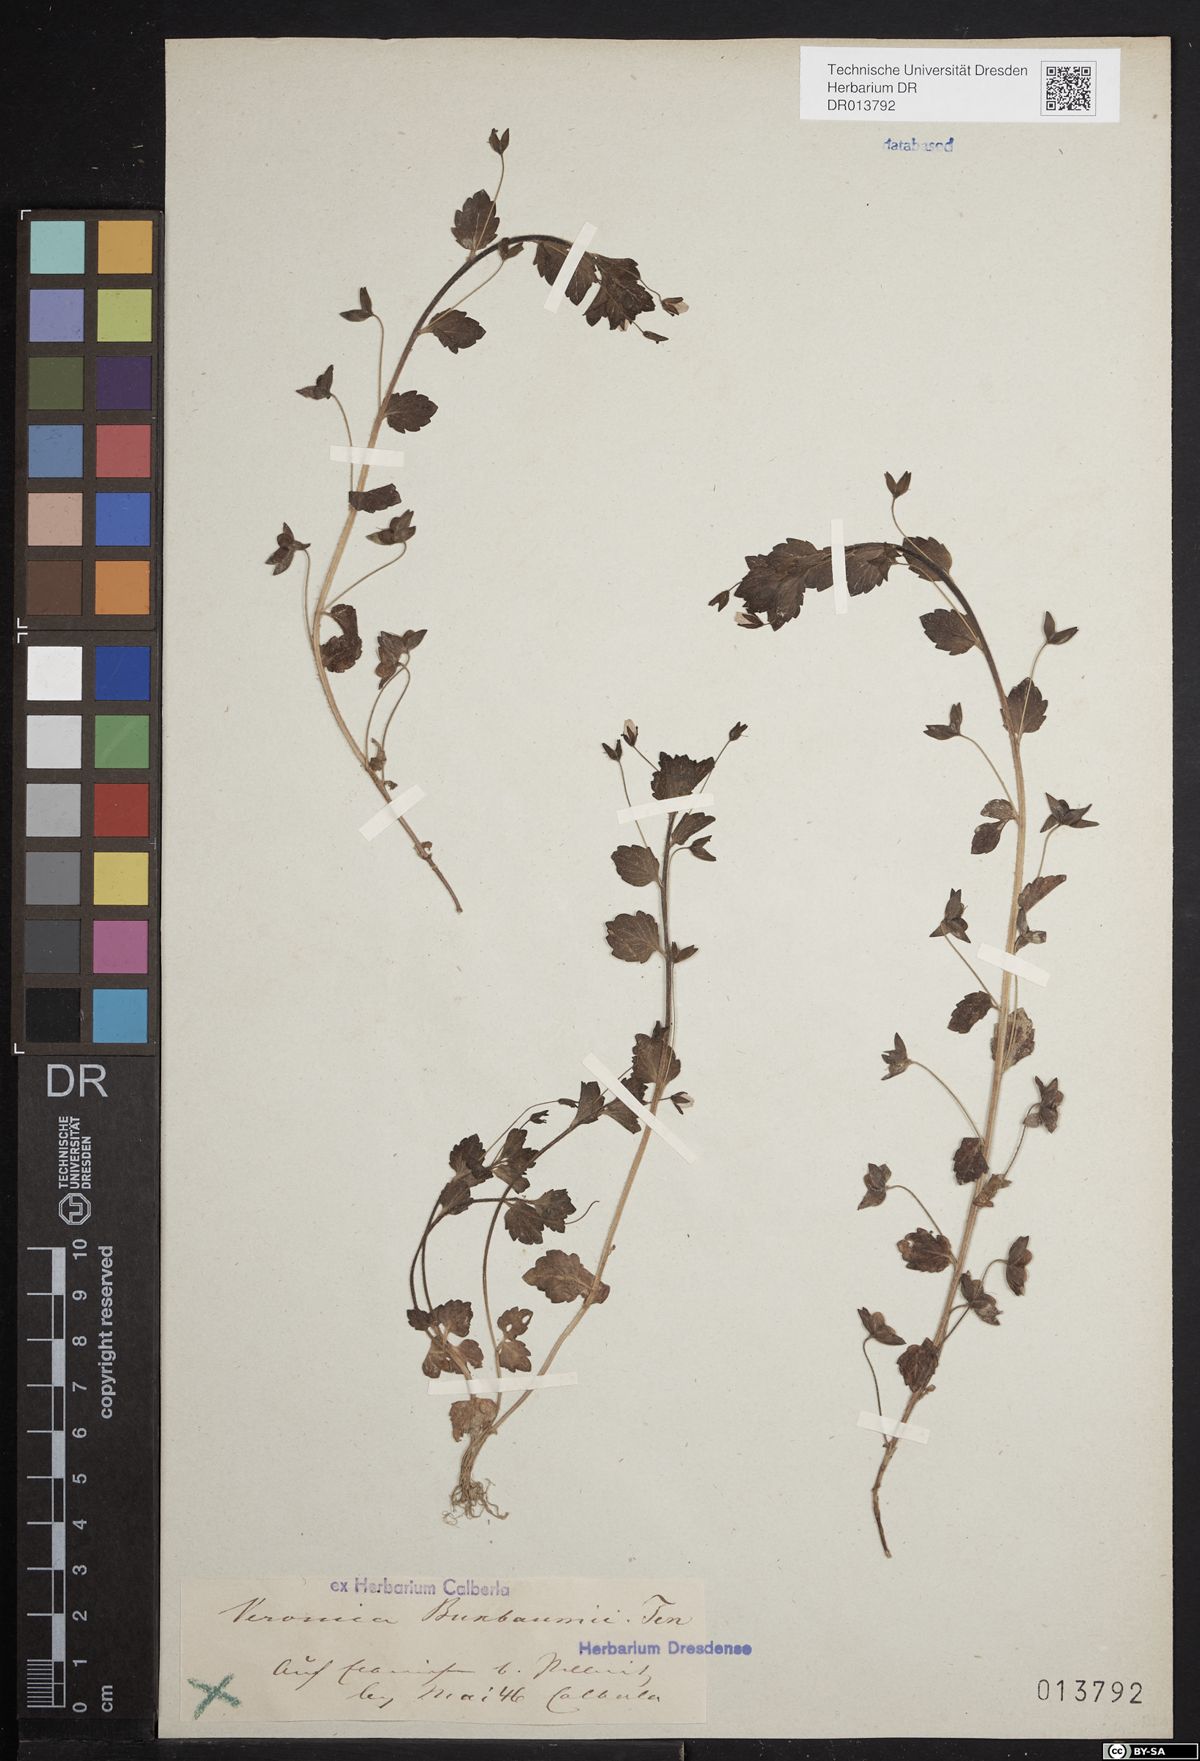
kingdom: Plantae
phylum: Tracheophyta
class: Magnoliopsida
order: Lamiales
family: Plantaginaceae
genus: Veronica
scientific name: Veronica persica
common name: Common field-speedwell
